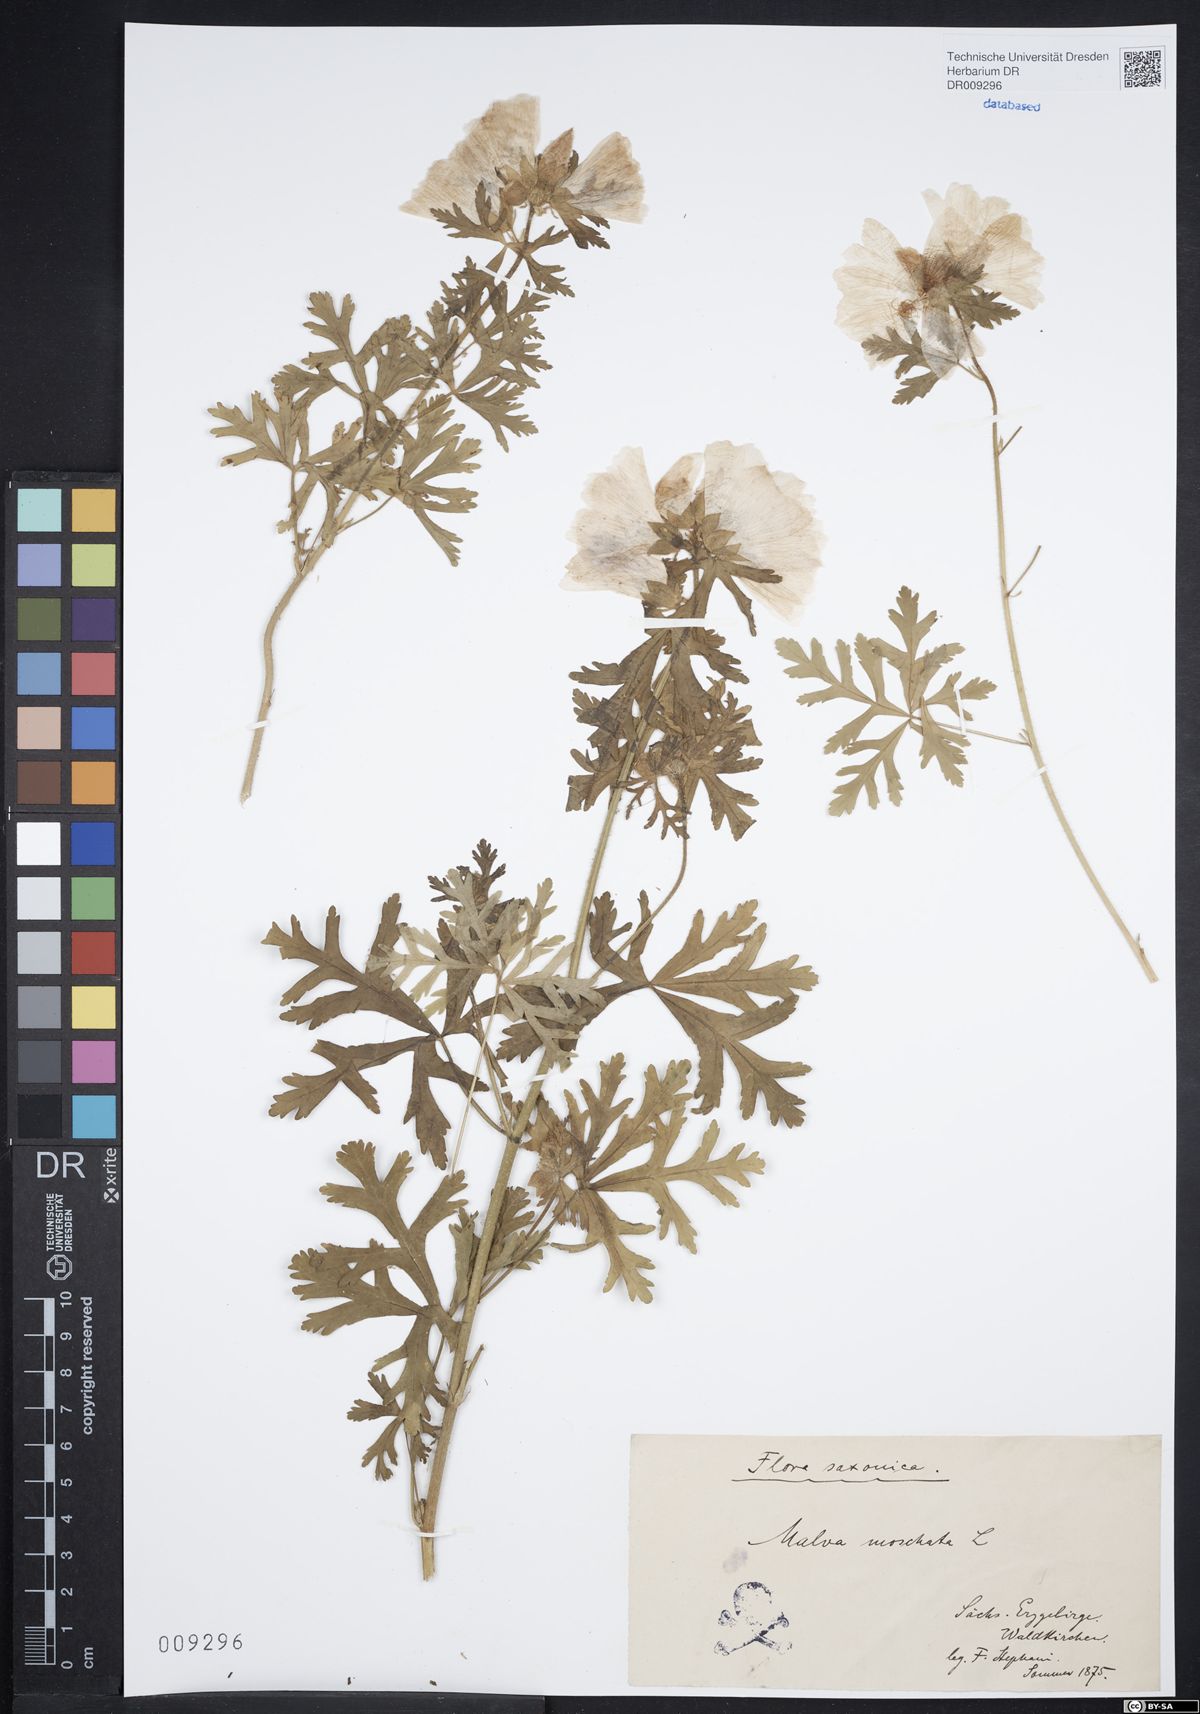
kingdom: Plantae
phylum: Tracheophyta
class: Magnoliopsida
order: Malvales
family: Malvaceae
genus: Malva
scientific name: Malva moschata
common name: Musk mallow
